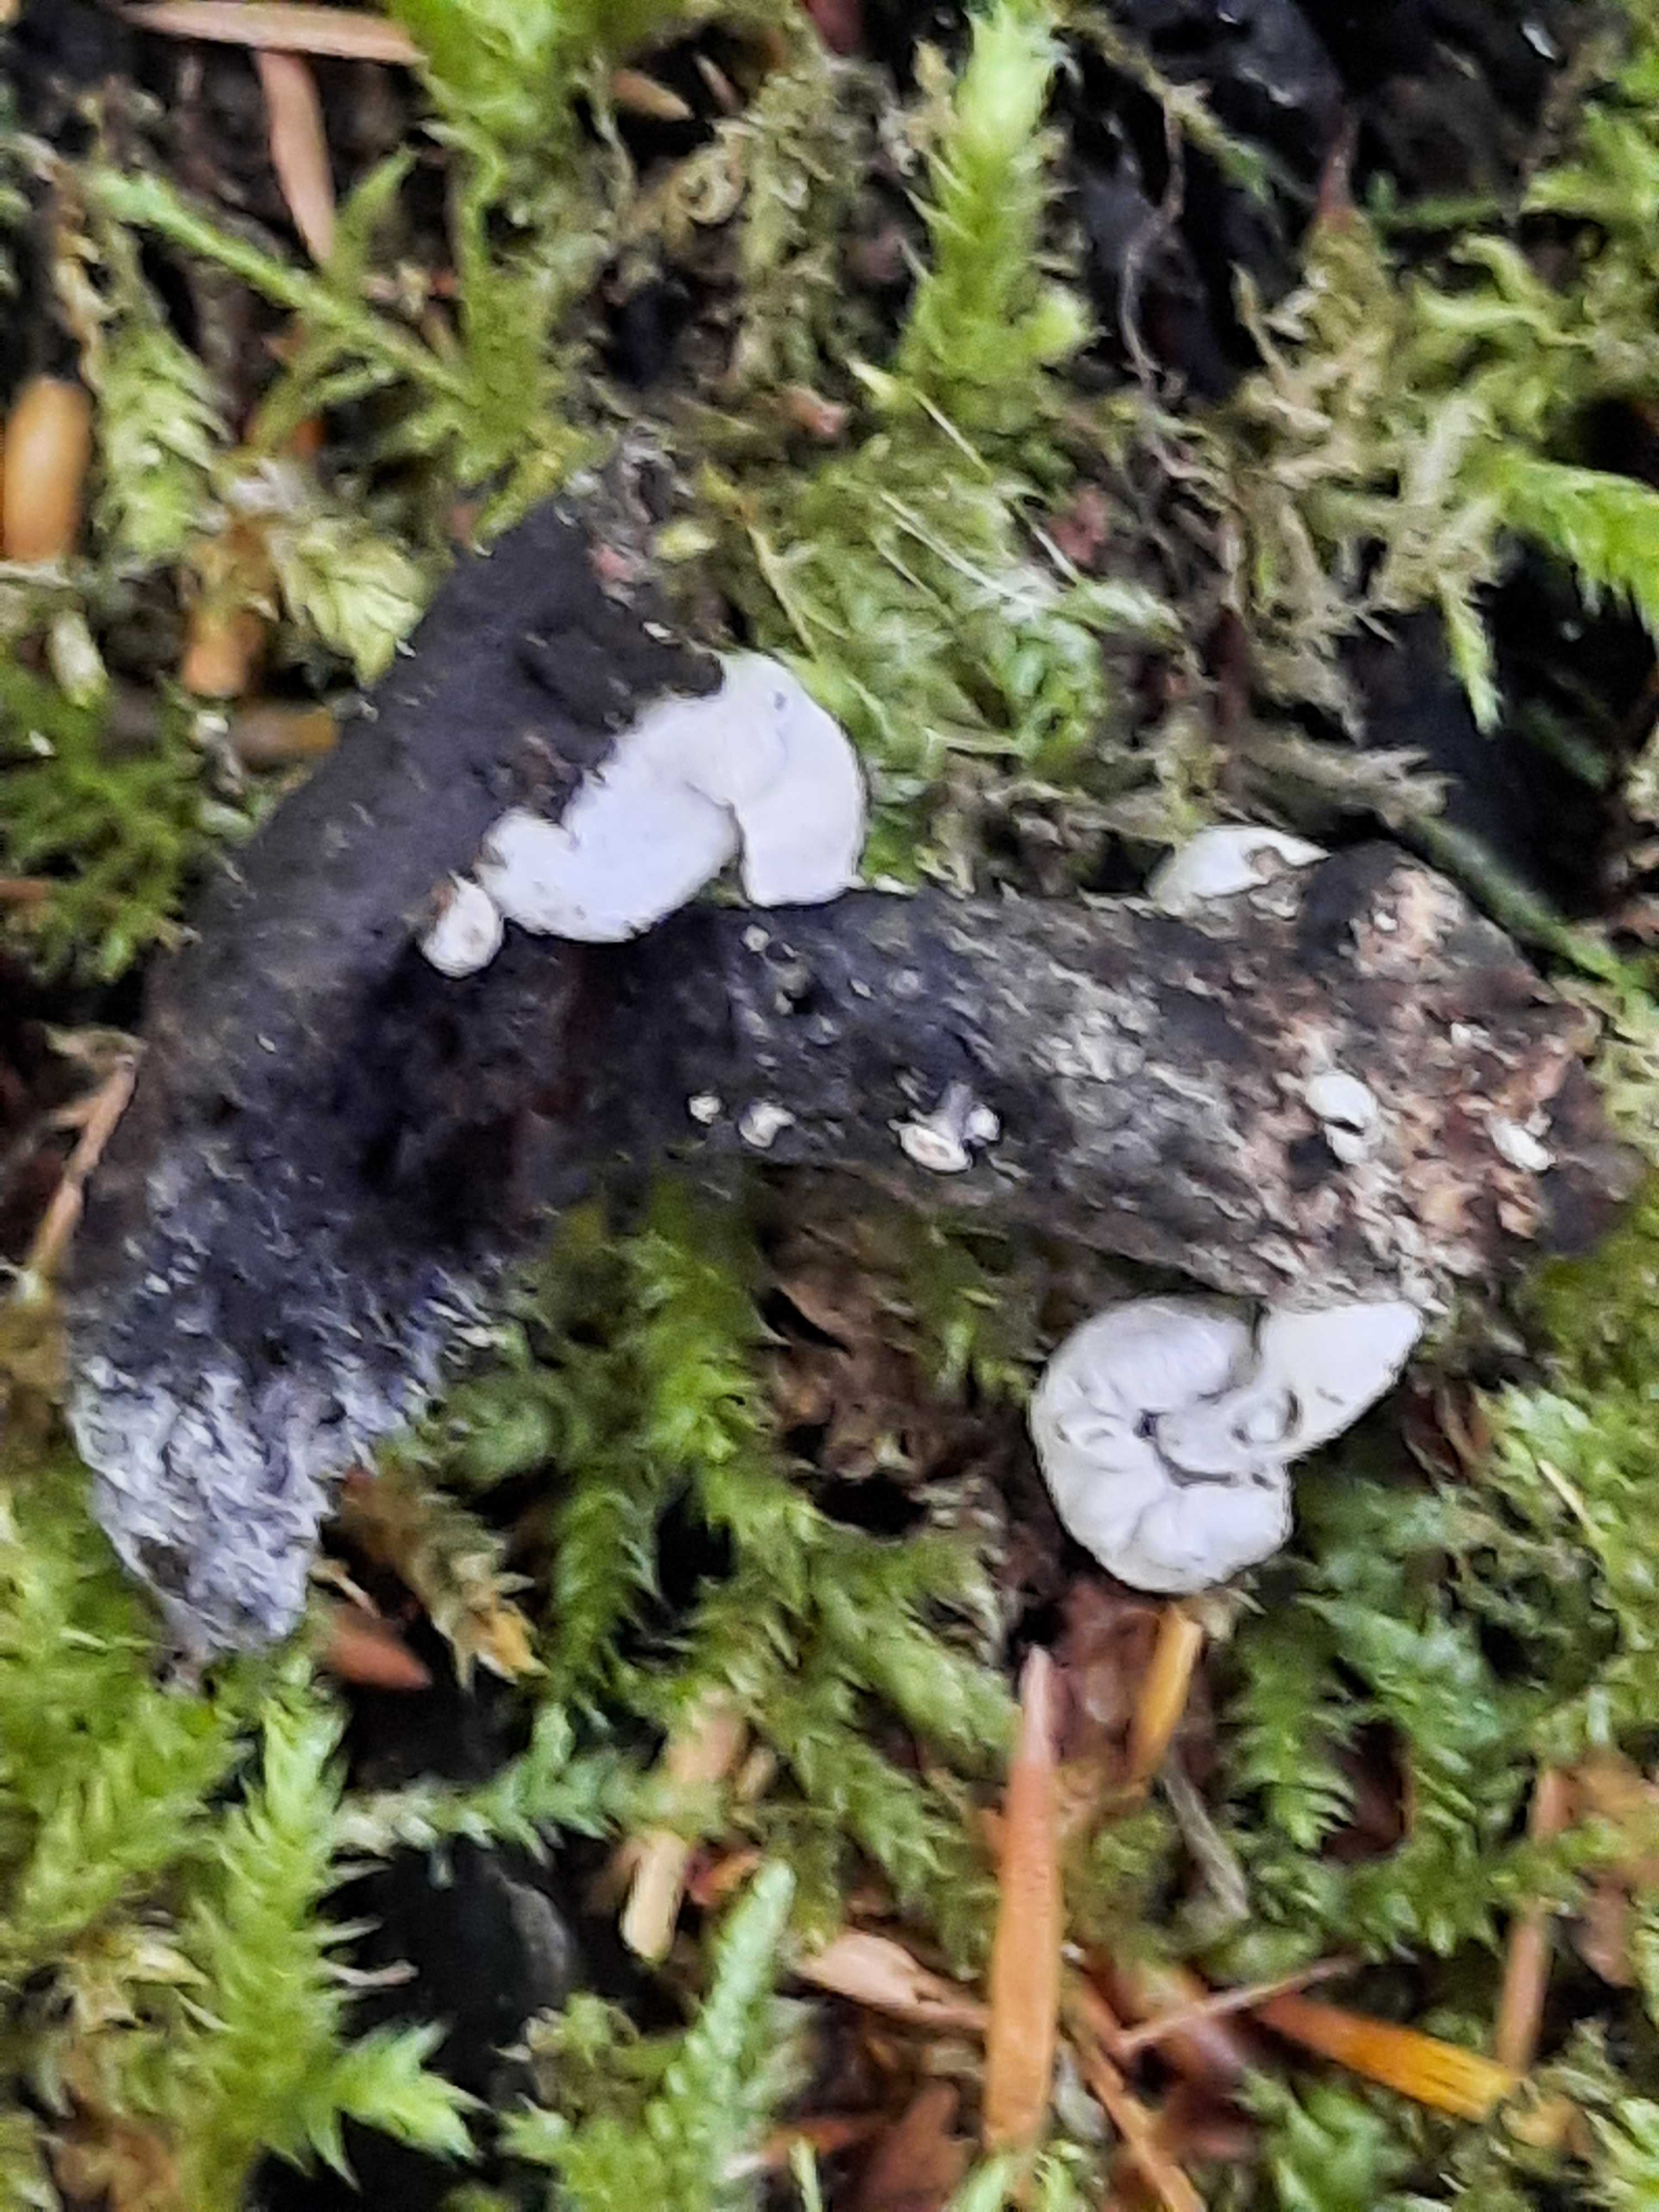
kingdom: Fungi
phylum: Basidiomycota
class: Agaricomycetes
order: Agaricales
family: Lyophyllaceae
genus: Asterophora
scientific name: Asterophora parasitica
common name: grå snyltehat
